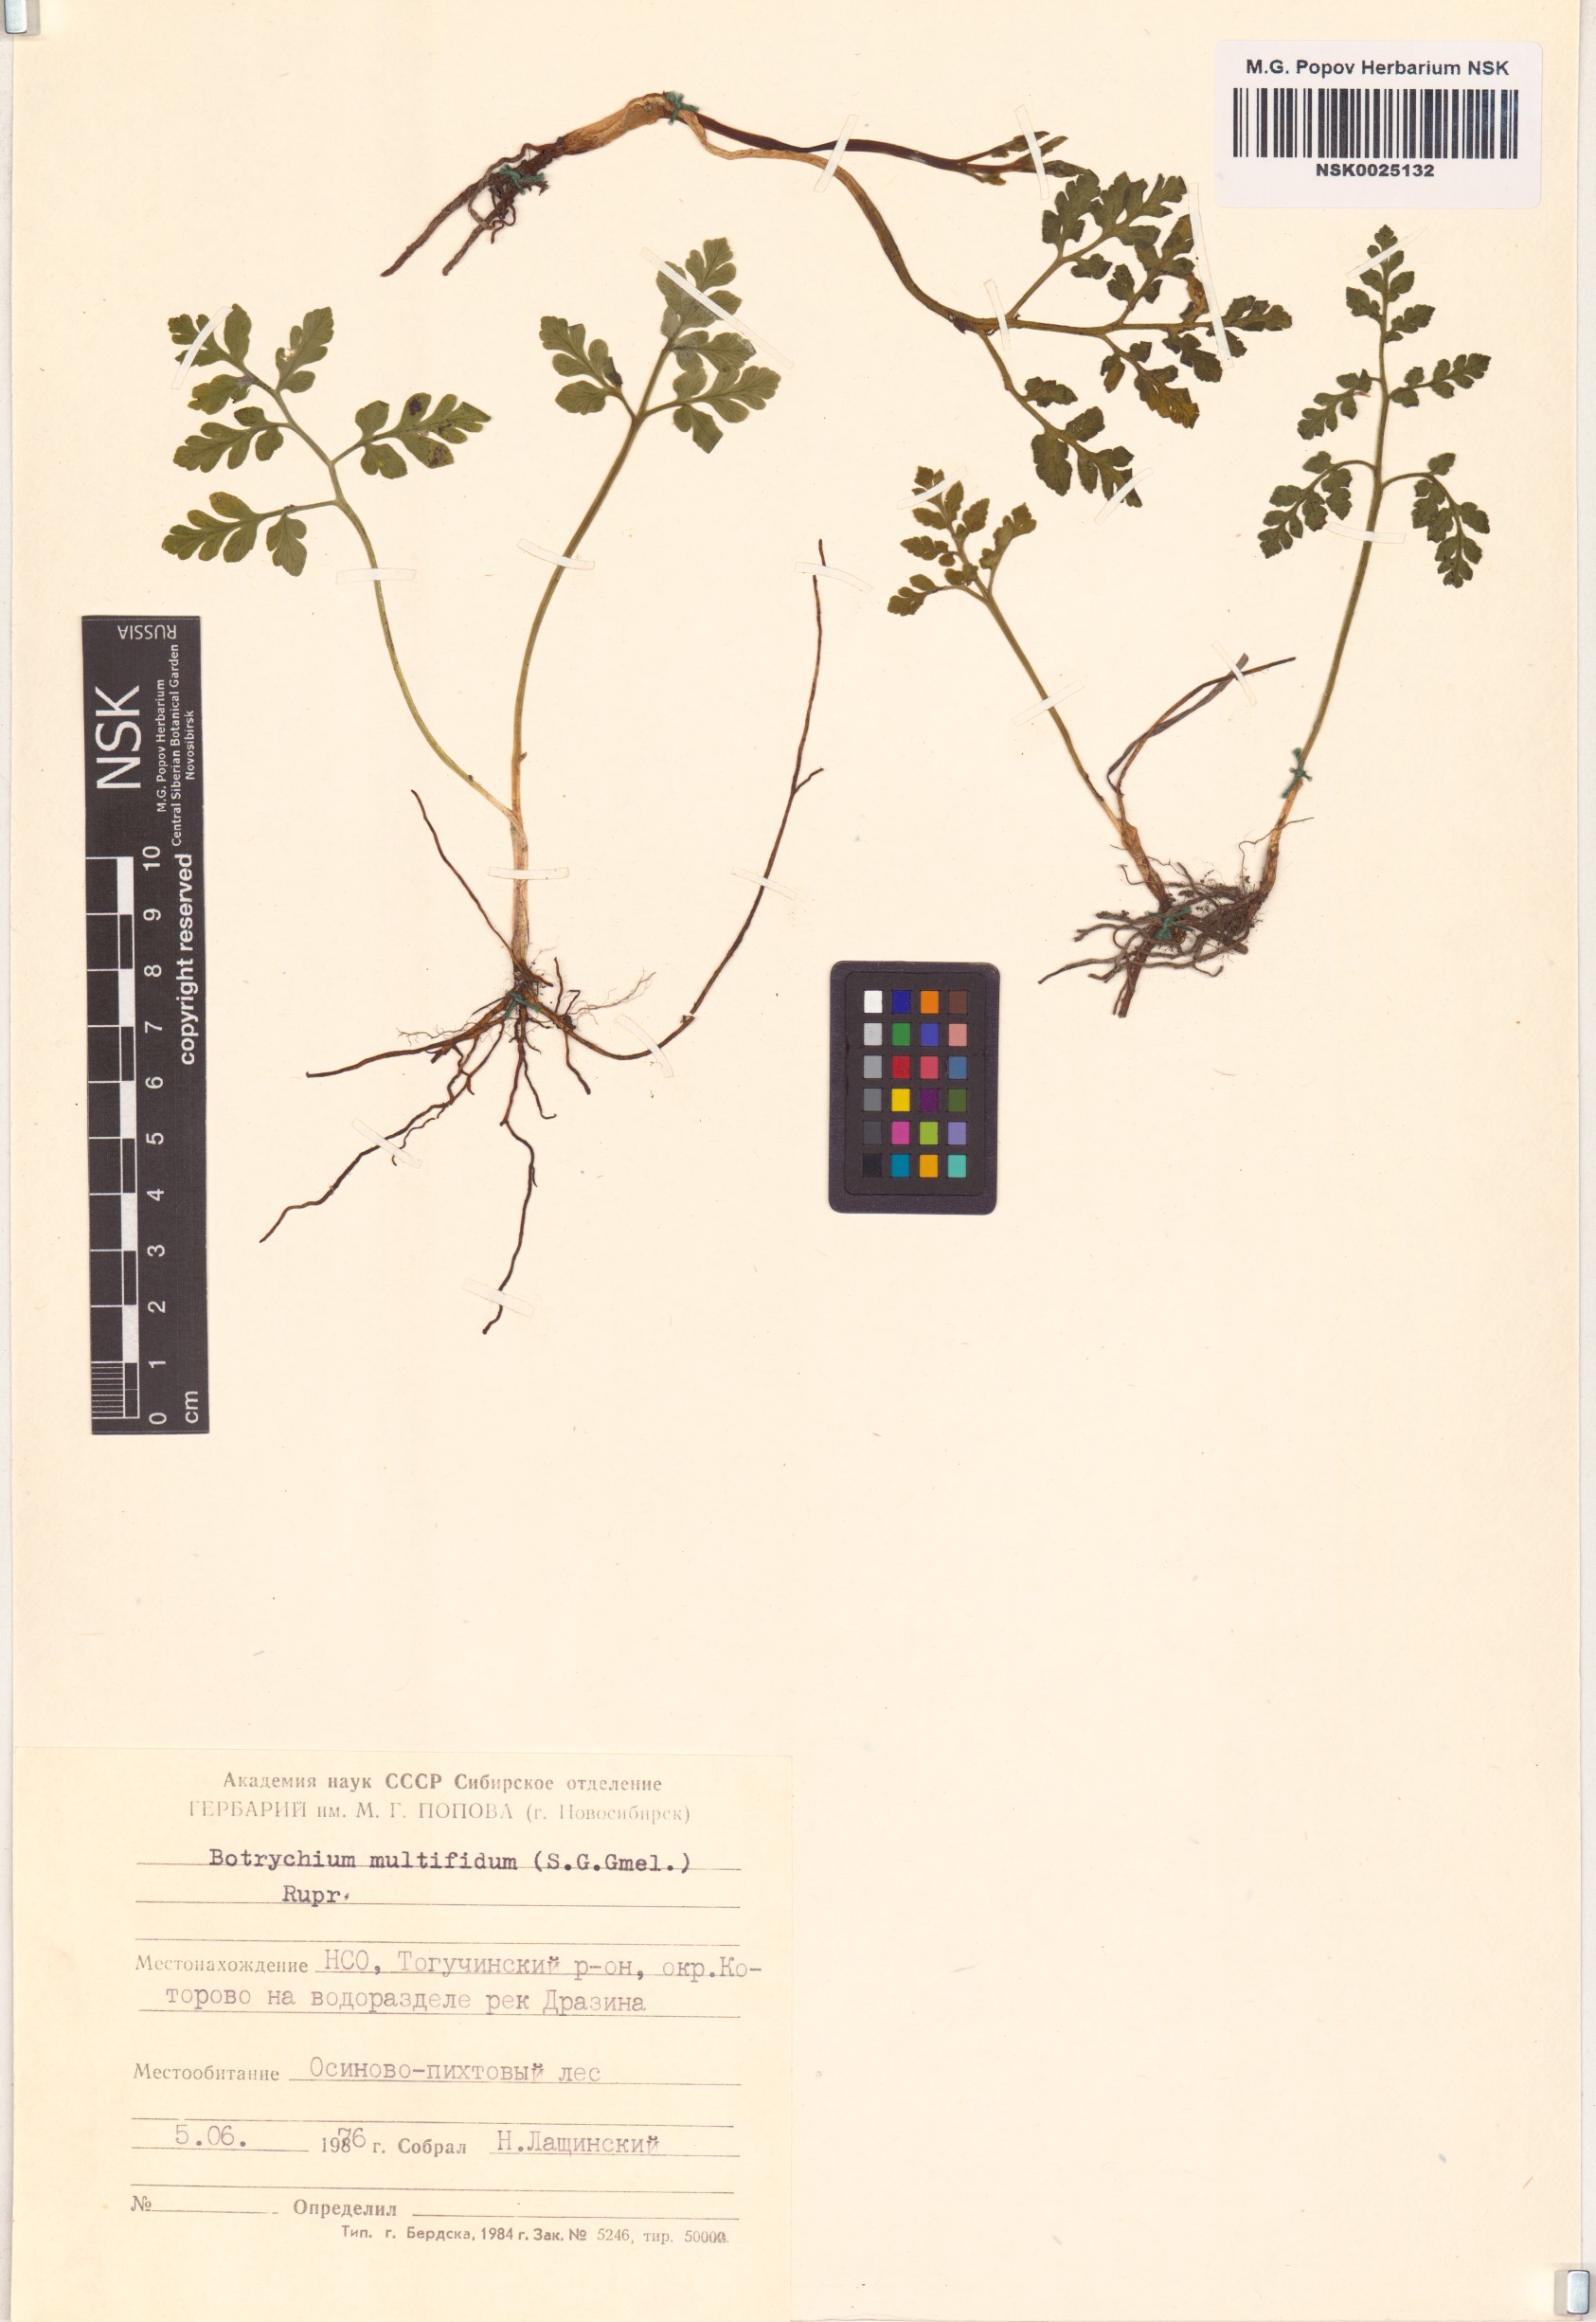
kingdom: Plantae
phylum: Tracheophyta
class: Polypodiopsida
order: Ophioglossales
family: Ophioglossaceae
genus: Sceptridium
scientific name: Sceptridium multifidum
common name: Leathery grape fern
